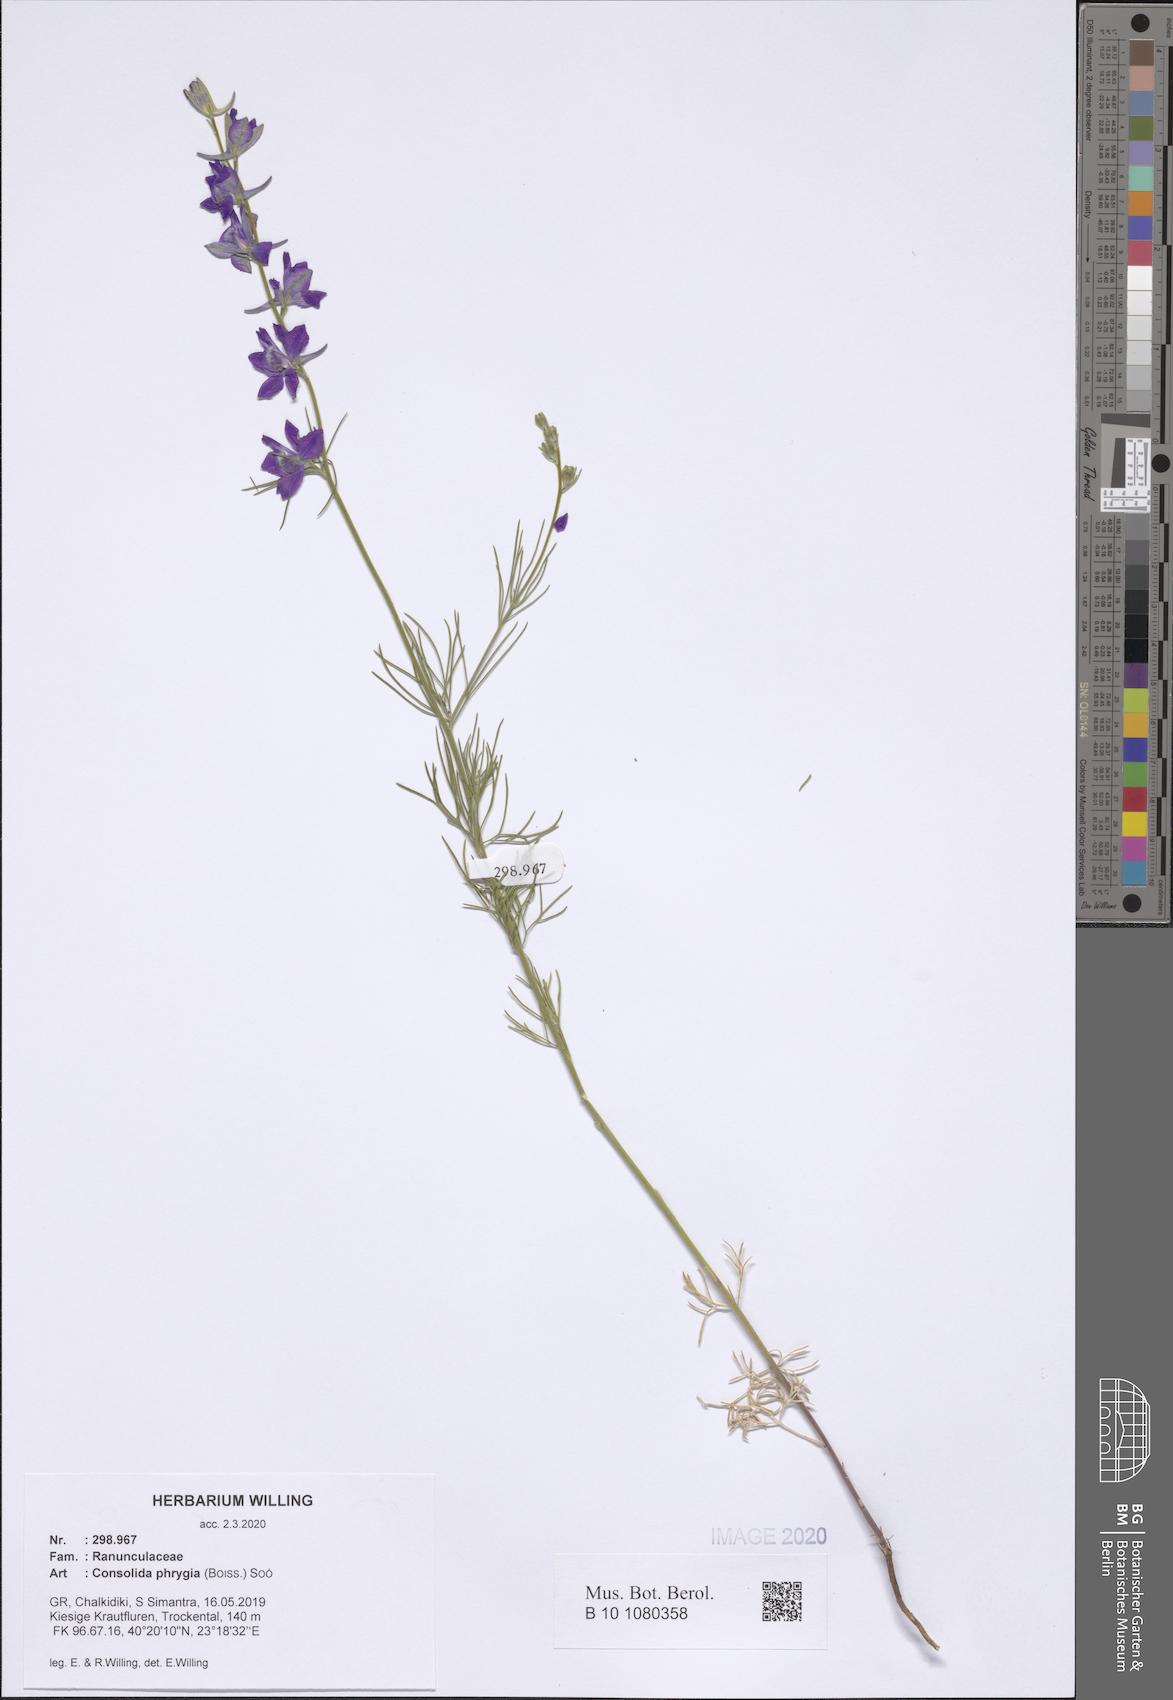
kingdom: Plantae
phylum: Tracheophyta
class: Magnoliopsida
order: Ranunculales
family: Ranunculaceae
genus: Delphinium
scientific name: Delphinium phrygium
